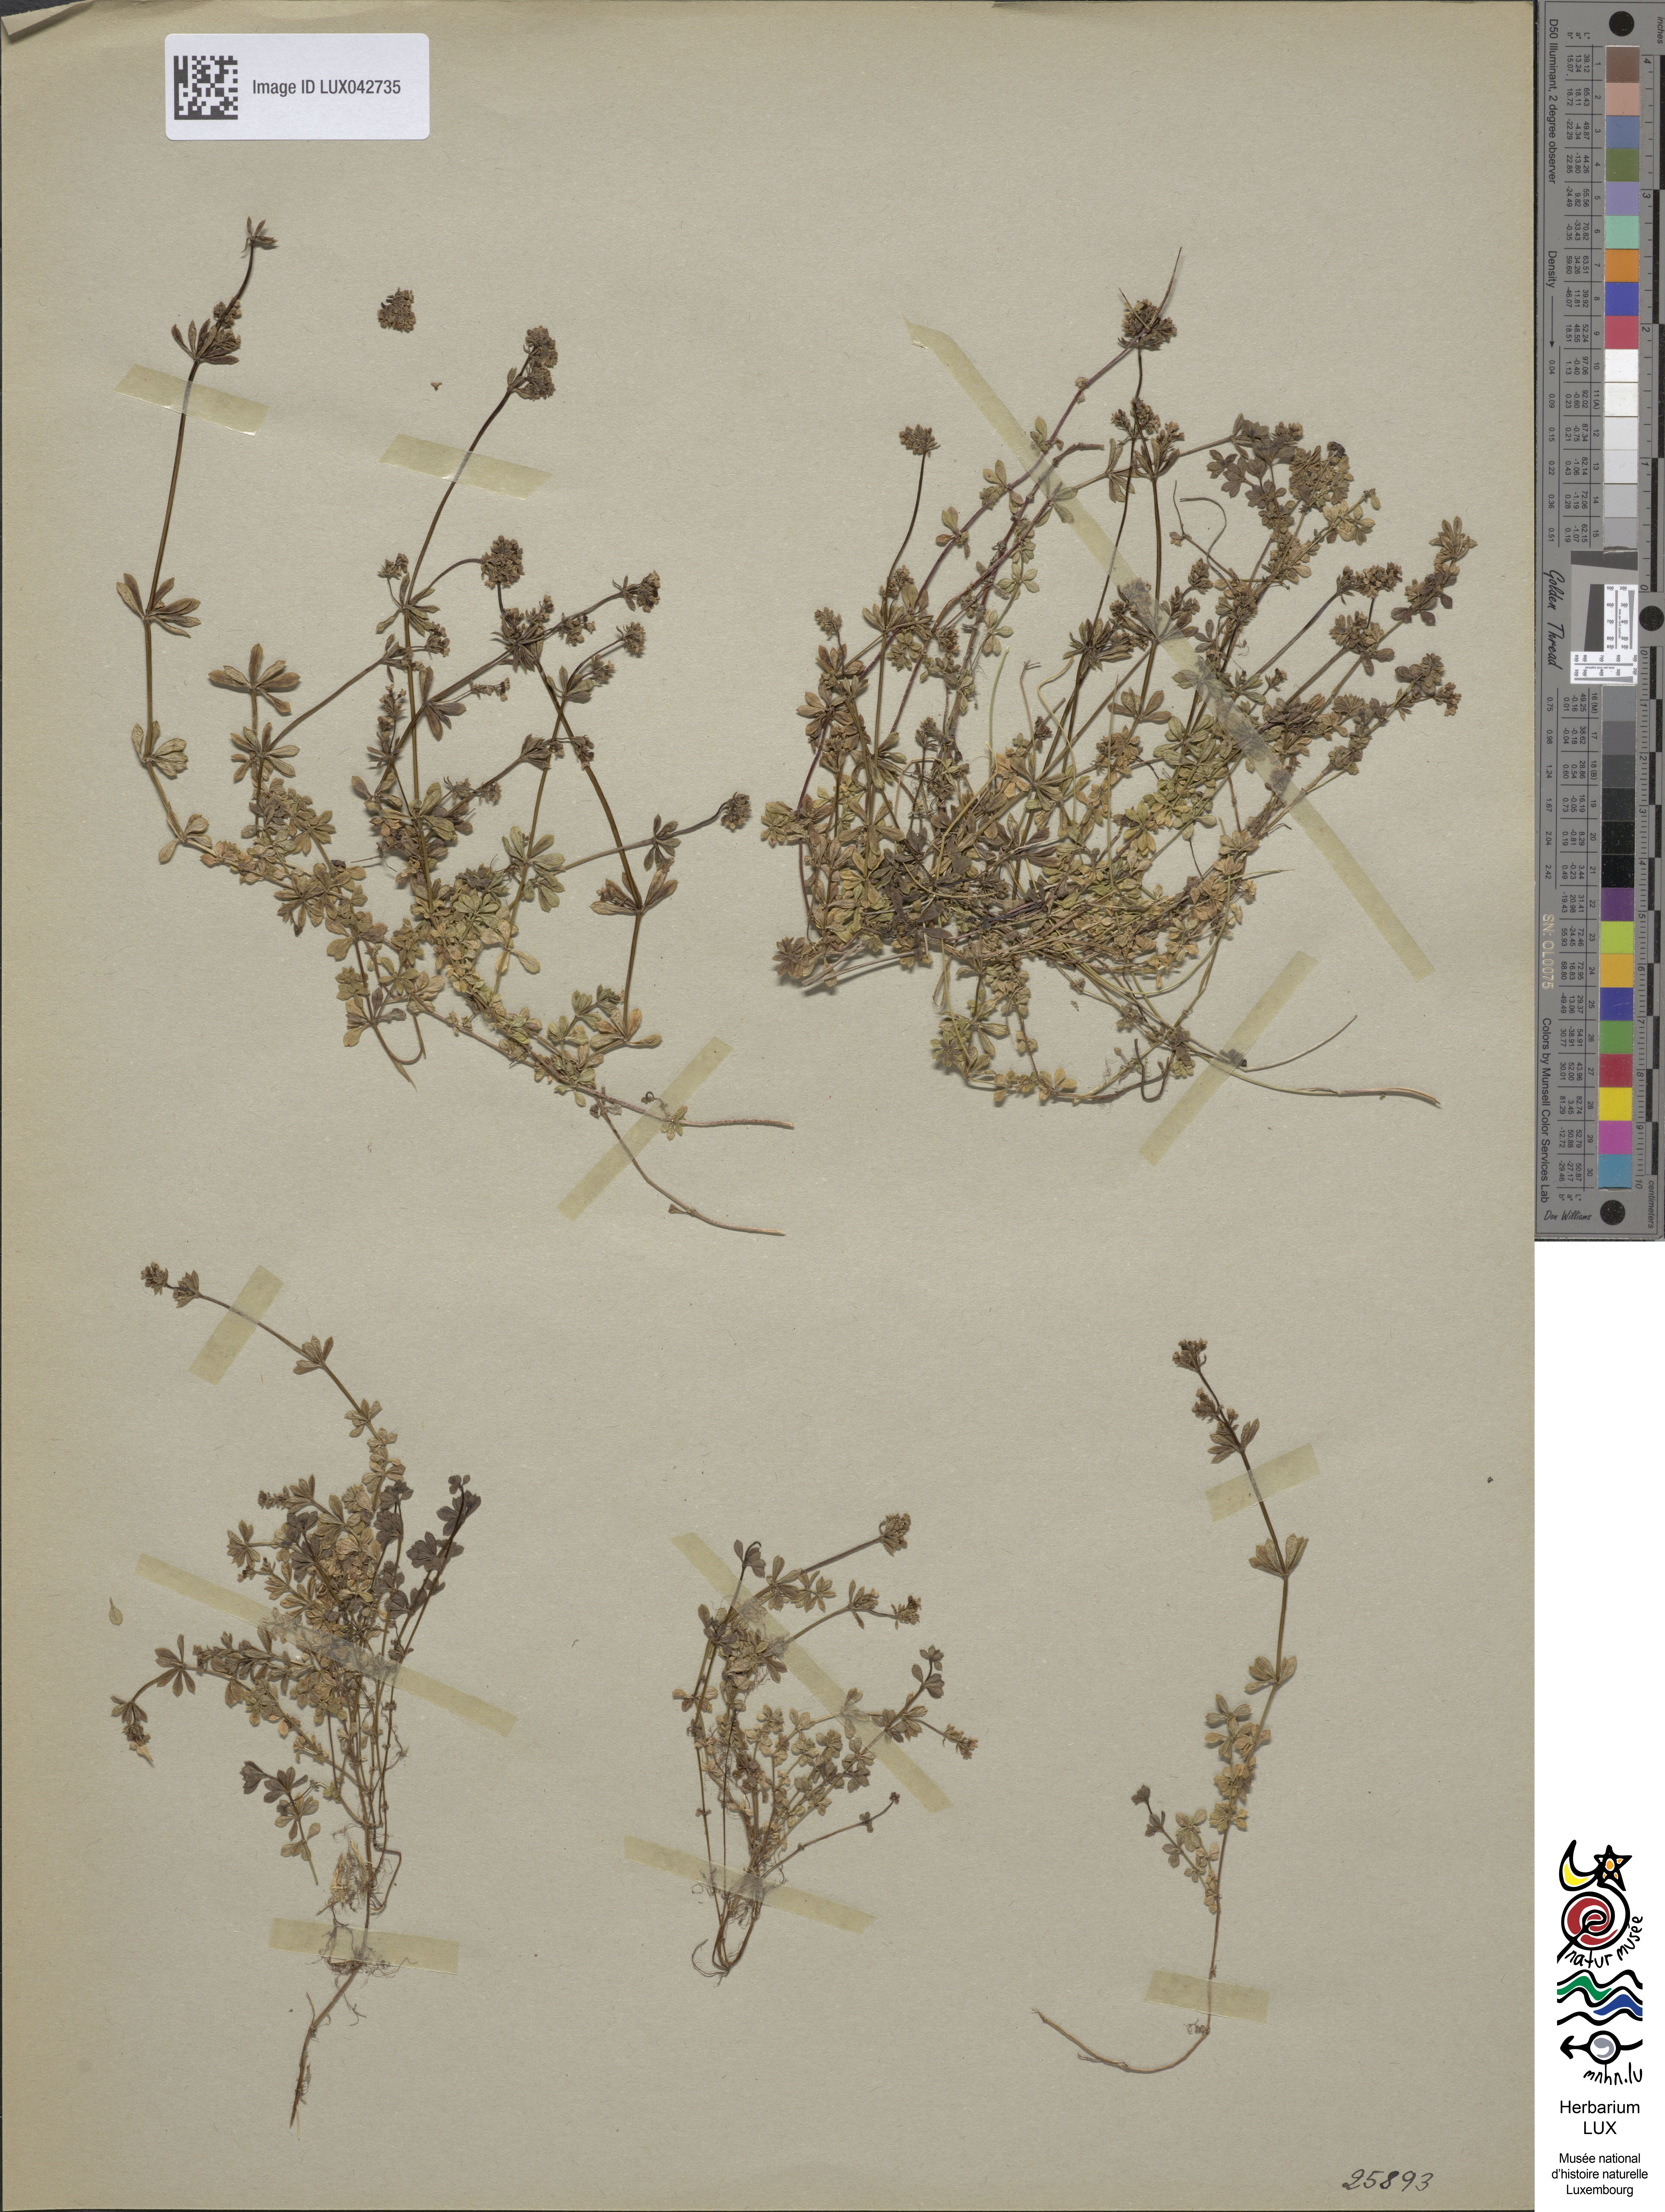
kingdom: Plantae
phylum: Tracheophyta
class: Magnoliopsida
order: Gentianales
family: Rubiaceae
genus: Galium
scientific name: Galium saxatile
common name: Heath bedstraw
